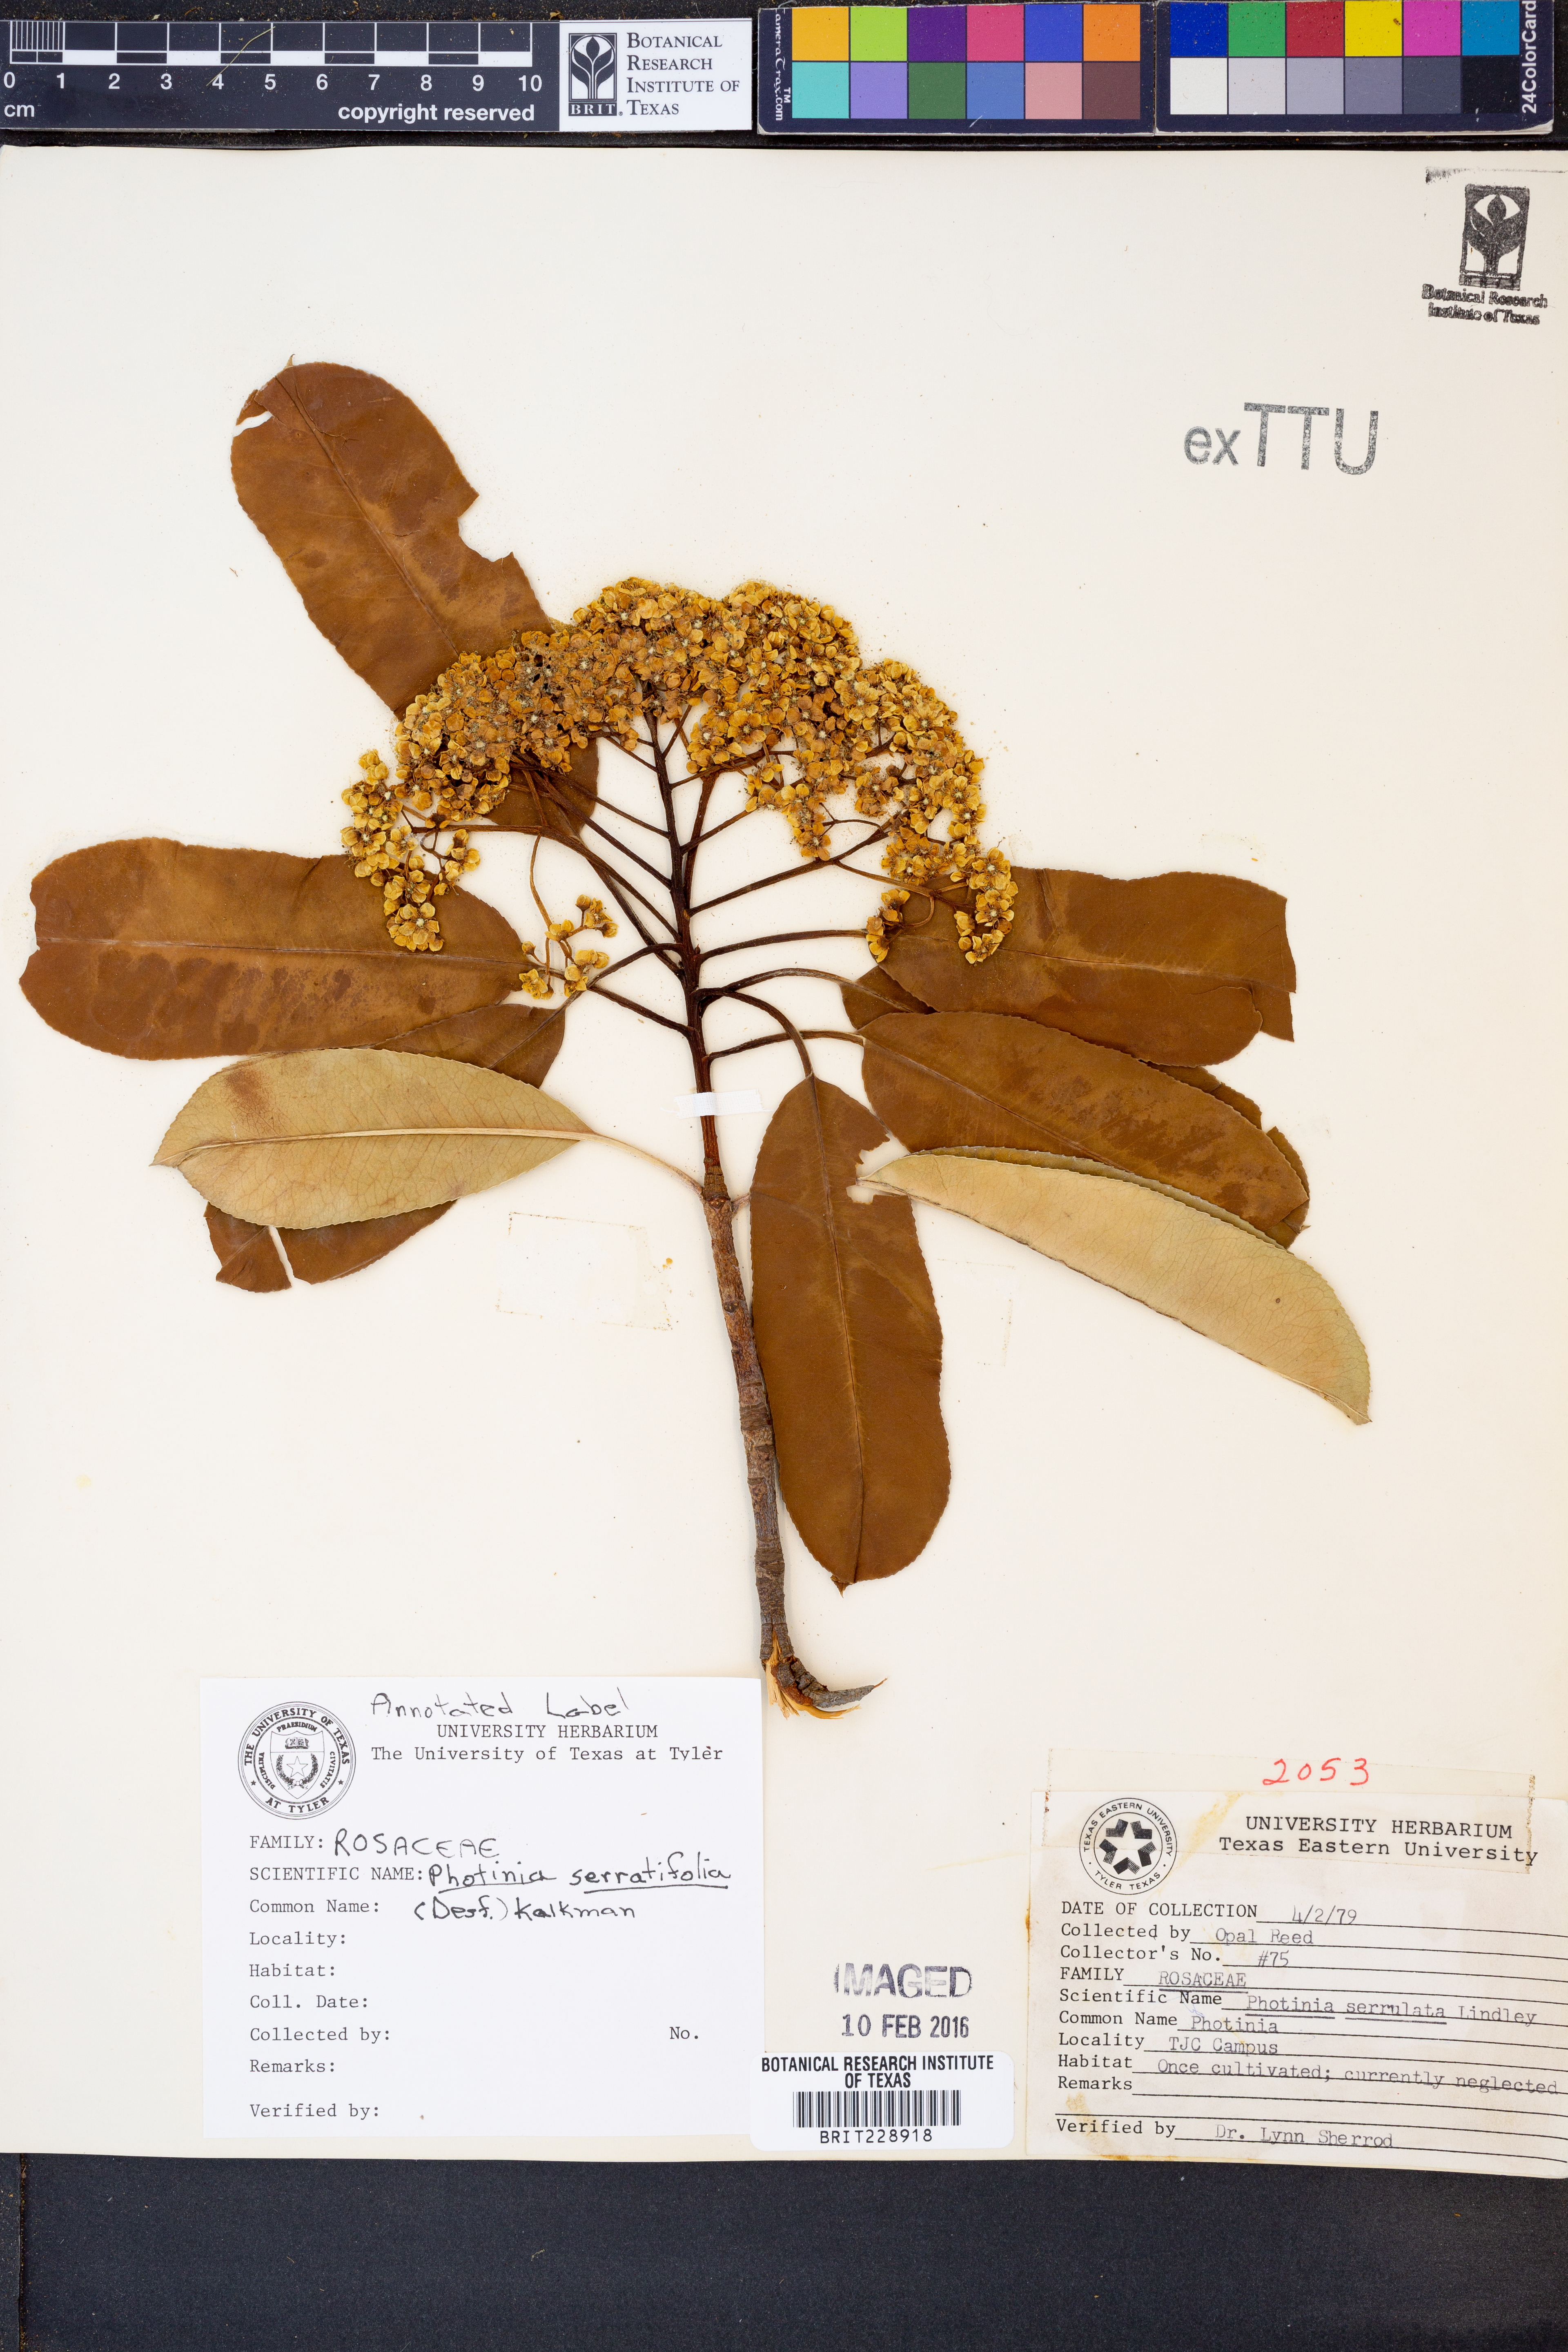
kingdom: Plantae
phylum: Tracheophyta
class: Magnoliopsida
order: Rosales
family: Rosaceae
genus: Photinia
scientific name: Photinia serratifolia
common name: Taiwanese photinia
